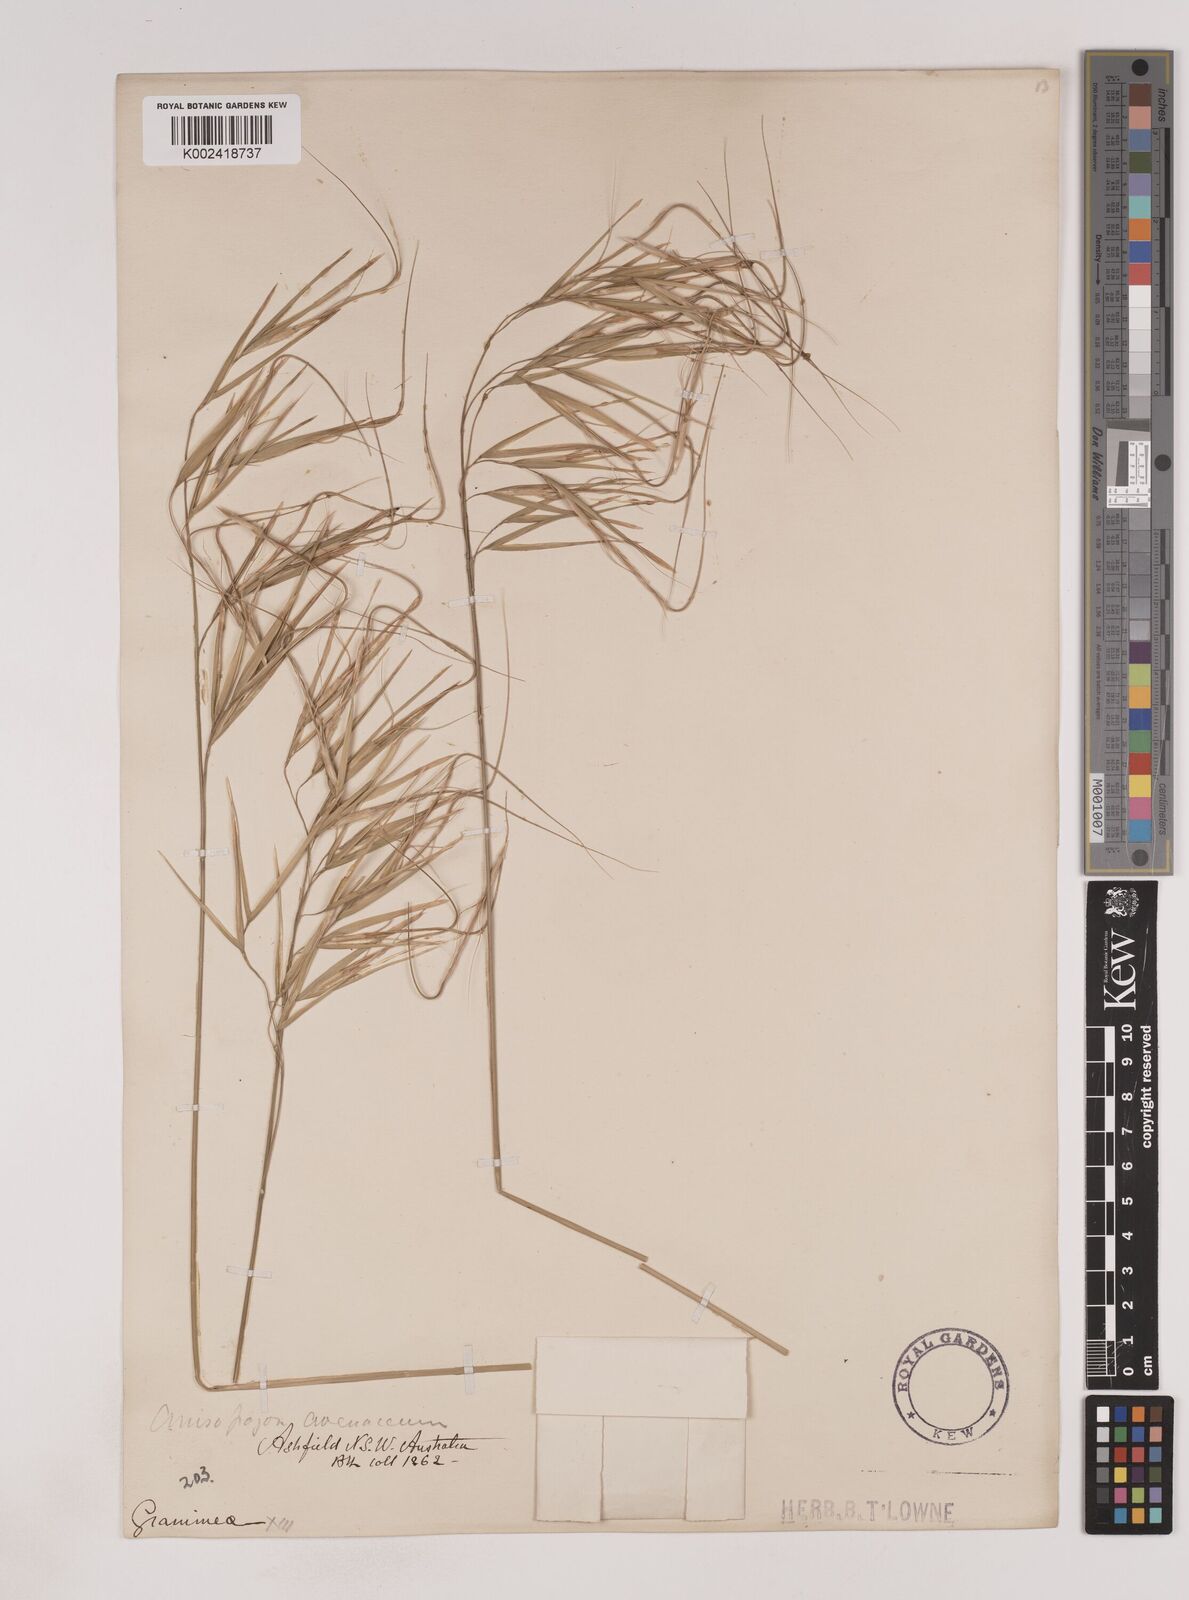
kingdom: Plantae
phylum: Tracheophyta
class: Liliopsida
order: Poales
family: Poaceae
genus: Anisopogon
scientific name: Anisopogon avenaceus
